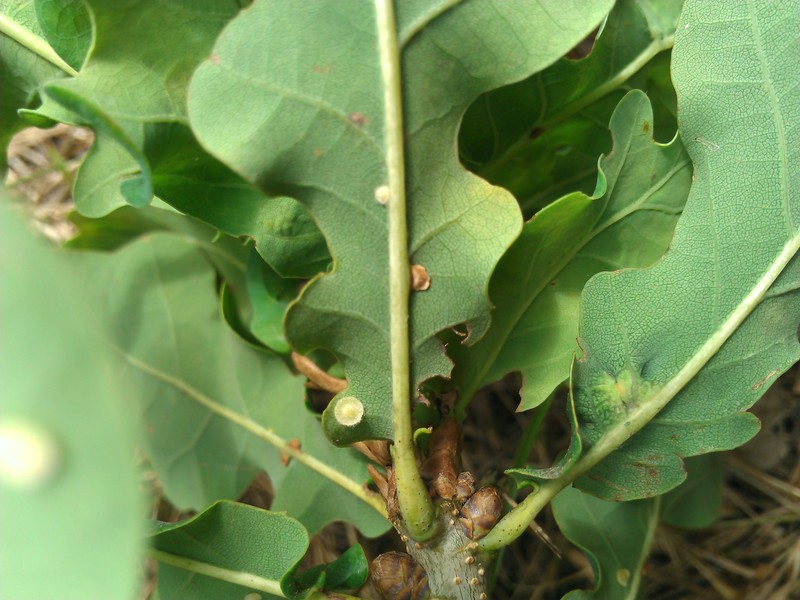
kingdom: Animalia
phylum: Arthropoda
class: Insecta
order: Hymenoptera
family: Cynipidae
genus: Neuroterus
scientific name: Neuroterus anthracinus
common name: Oyster gall
